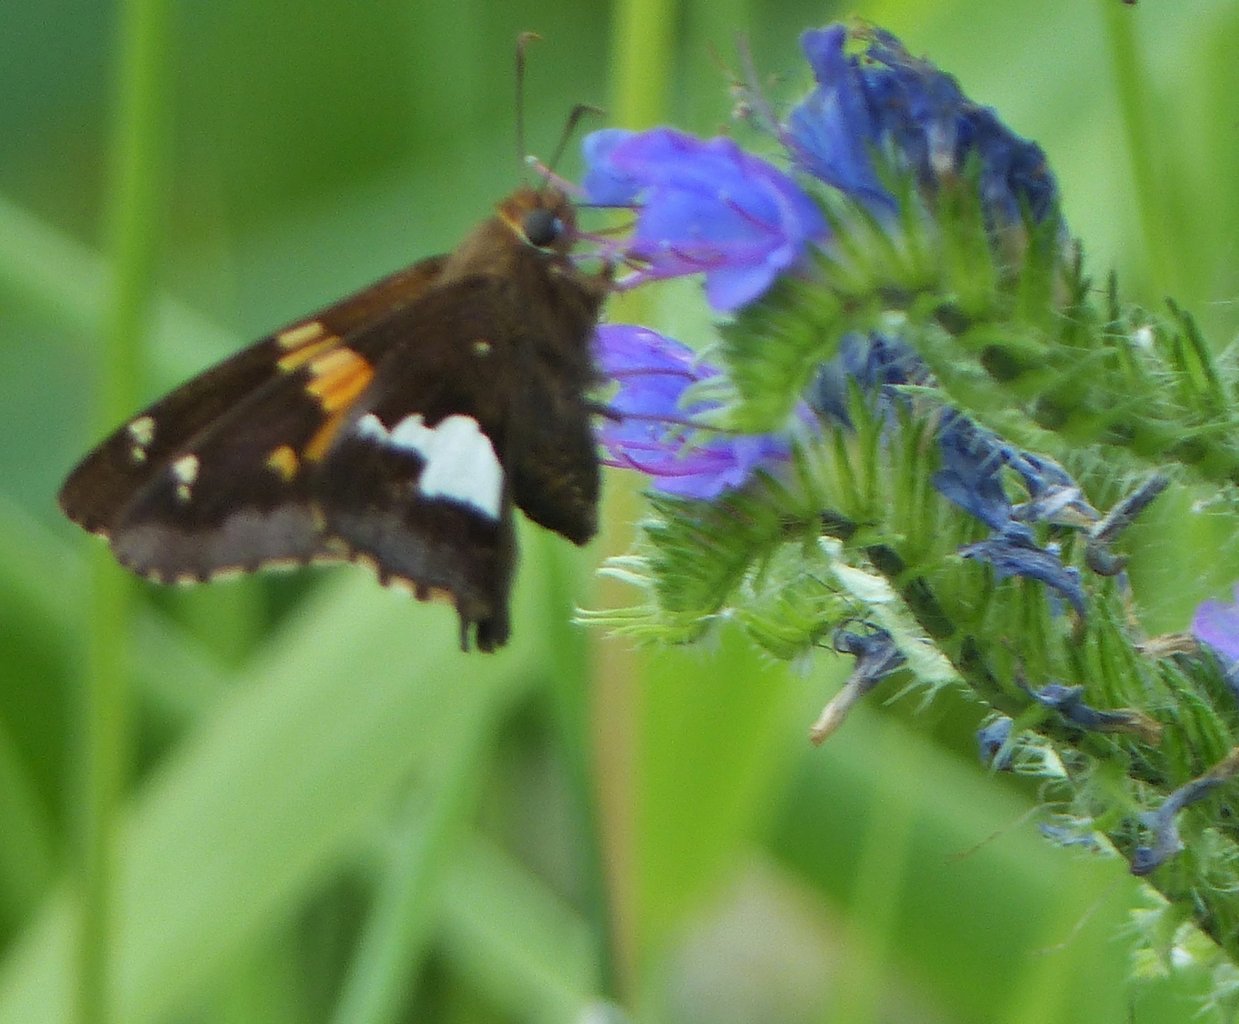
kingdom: Animalia
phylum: Arthropoda
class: Insecta
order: Lepidoptera
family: Hesperiidae
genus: Epargyreus
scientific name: Epargyreus clarus
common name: Silver-spotted Skipper
